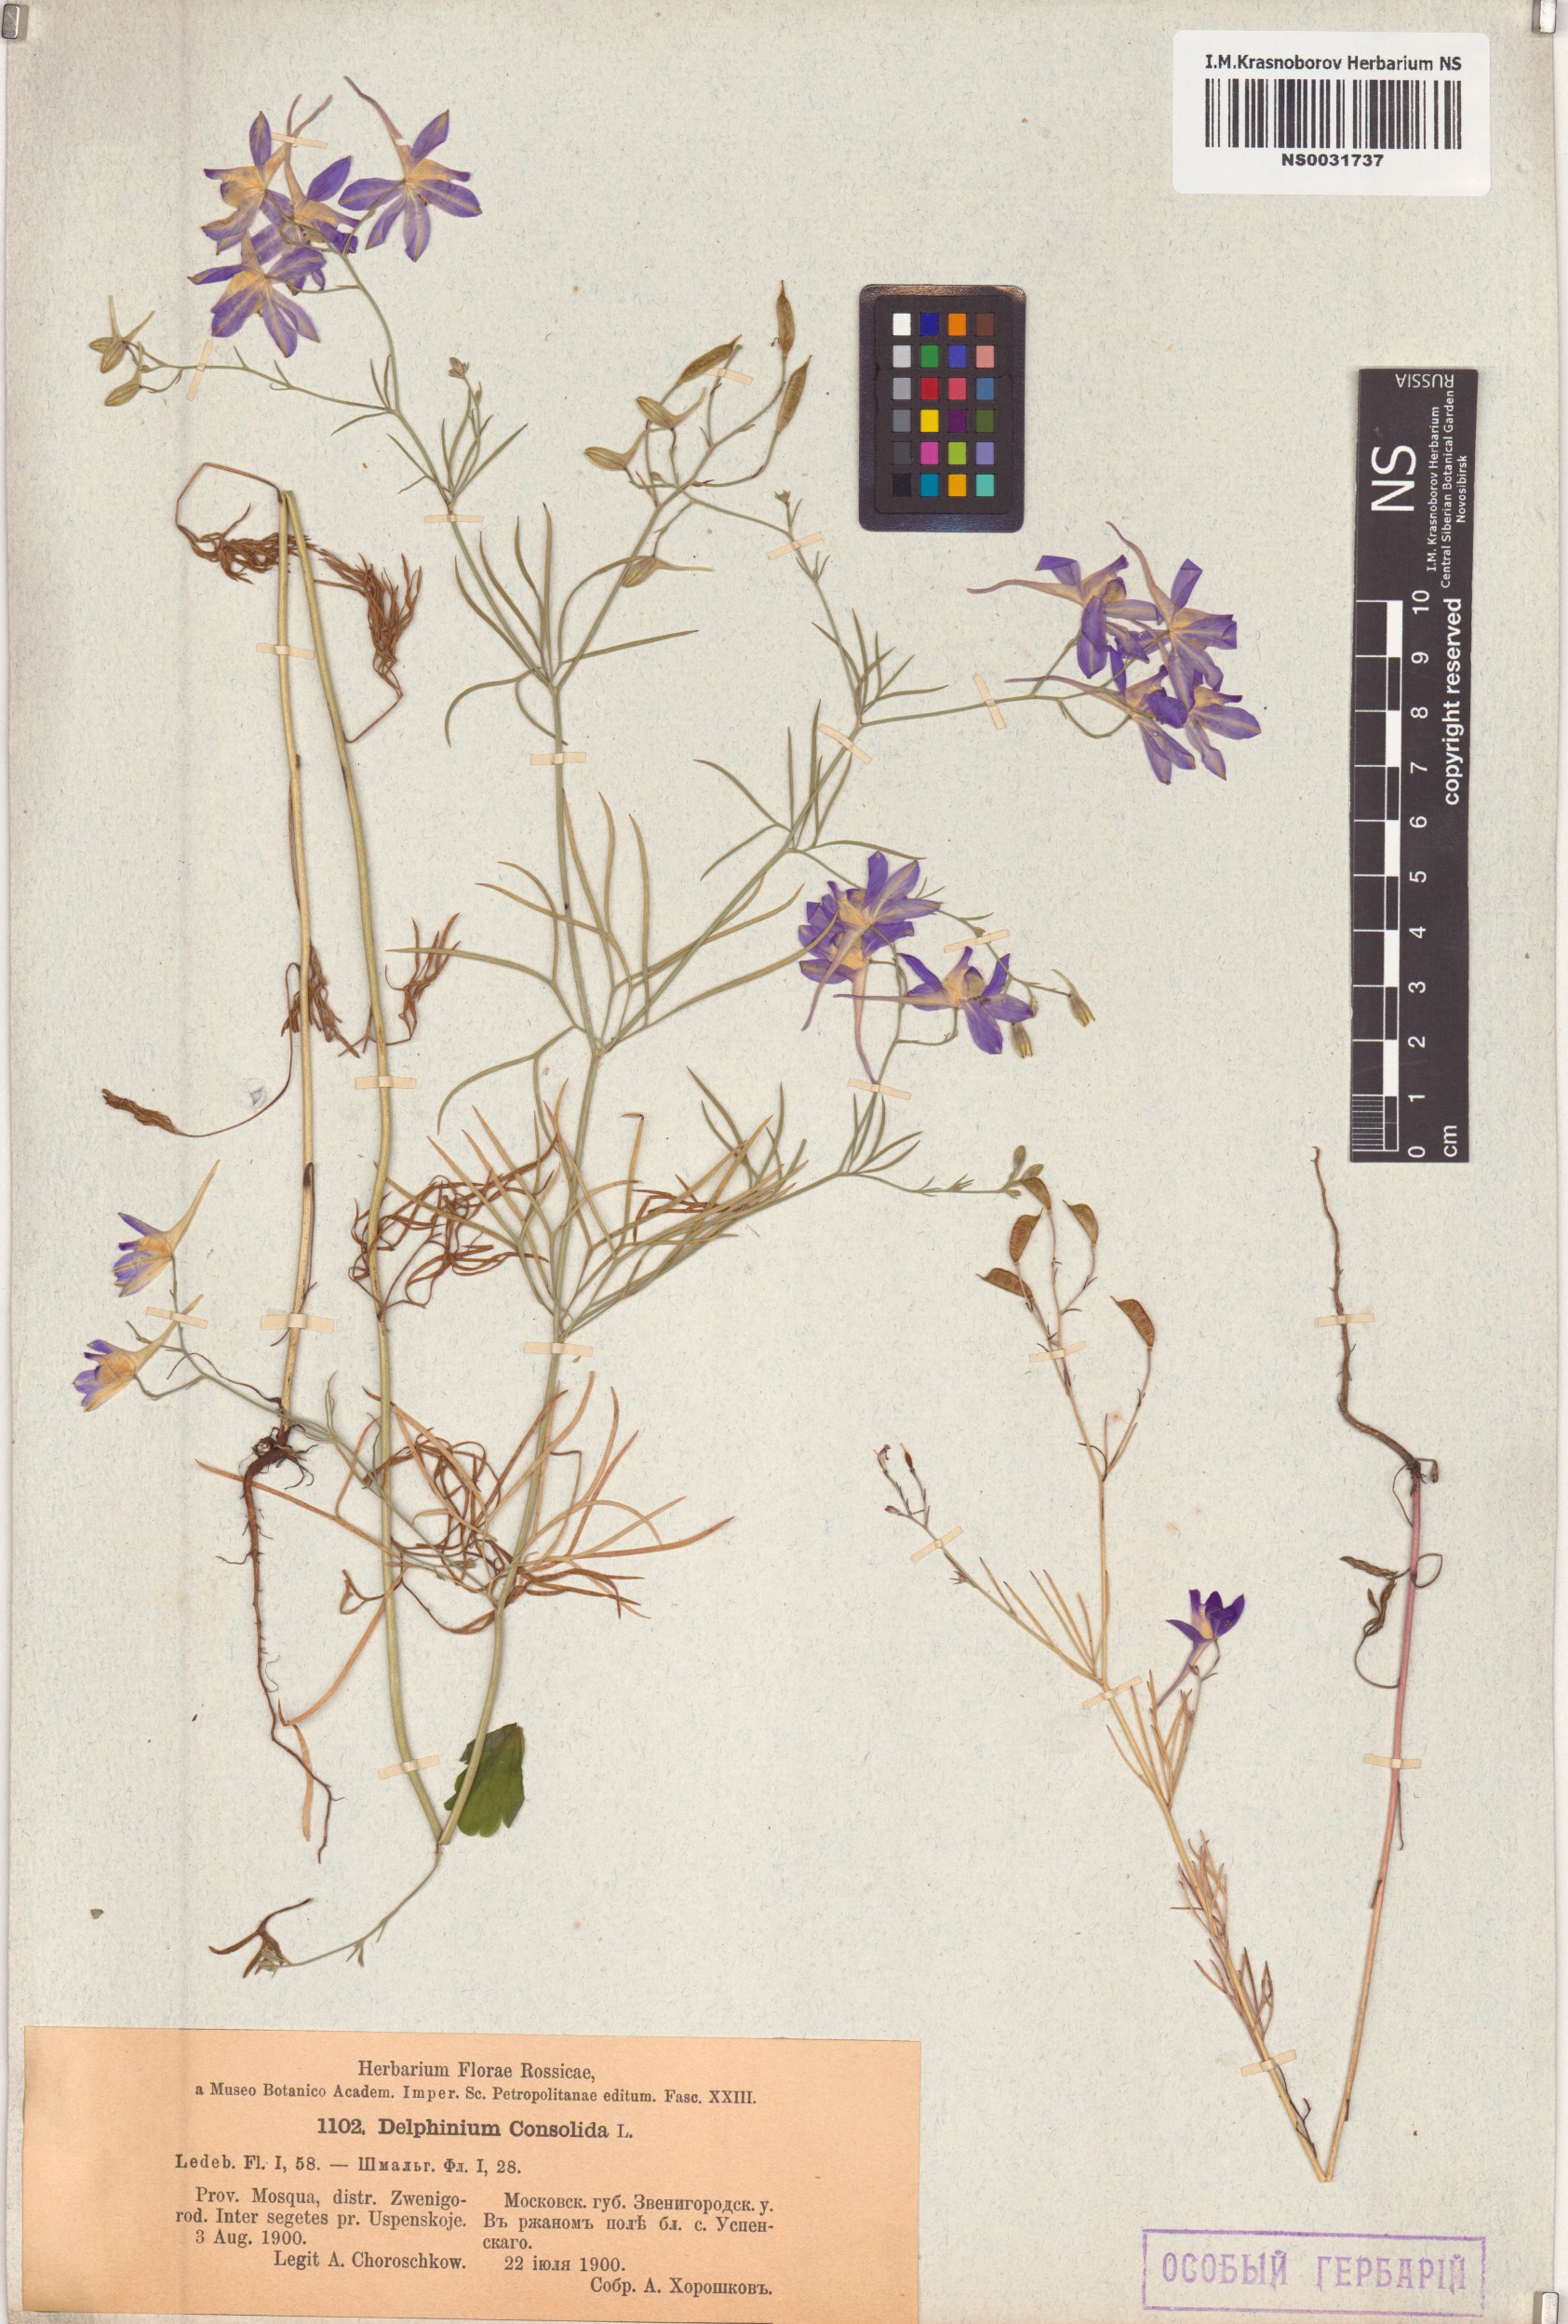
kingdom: Plantae
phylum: Tracheophyta
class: Magnoliopsida
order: Ranunculales
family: Ranunculaceae
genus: Delphinium
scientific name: Delphinium consolida
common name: Branching larkspur
